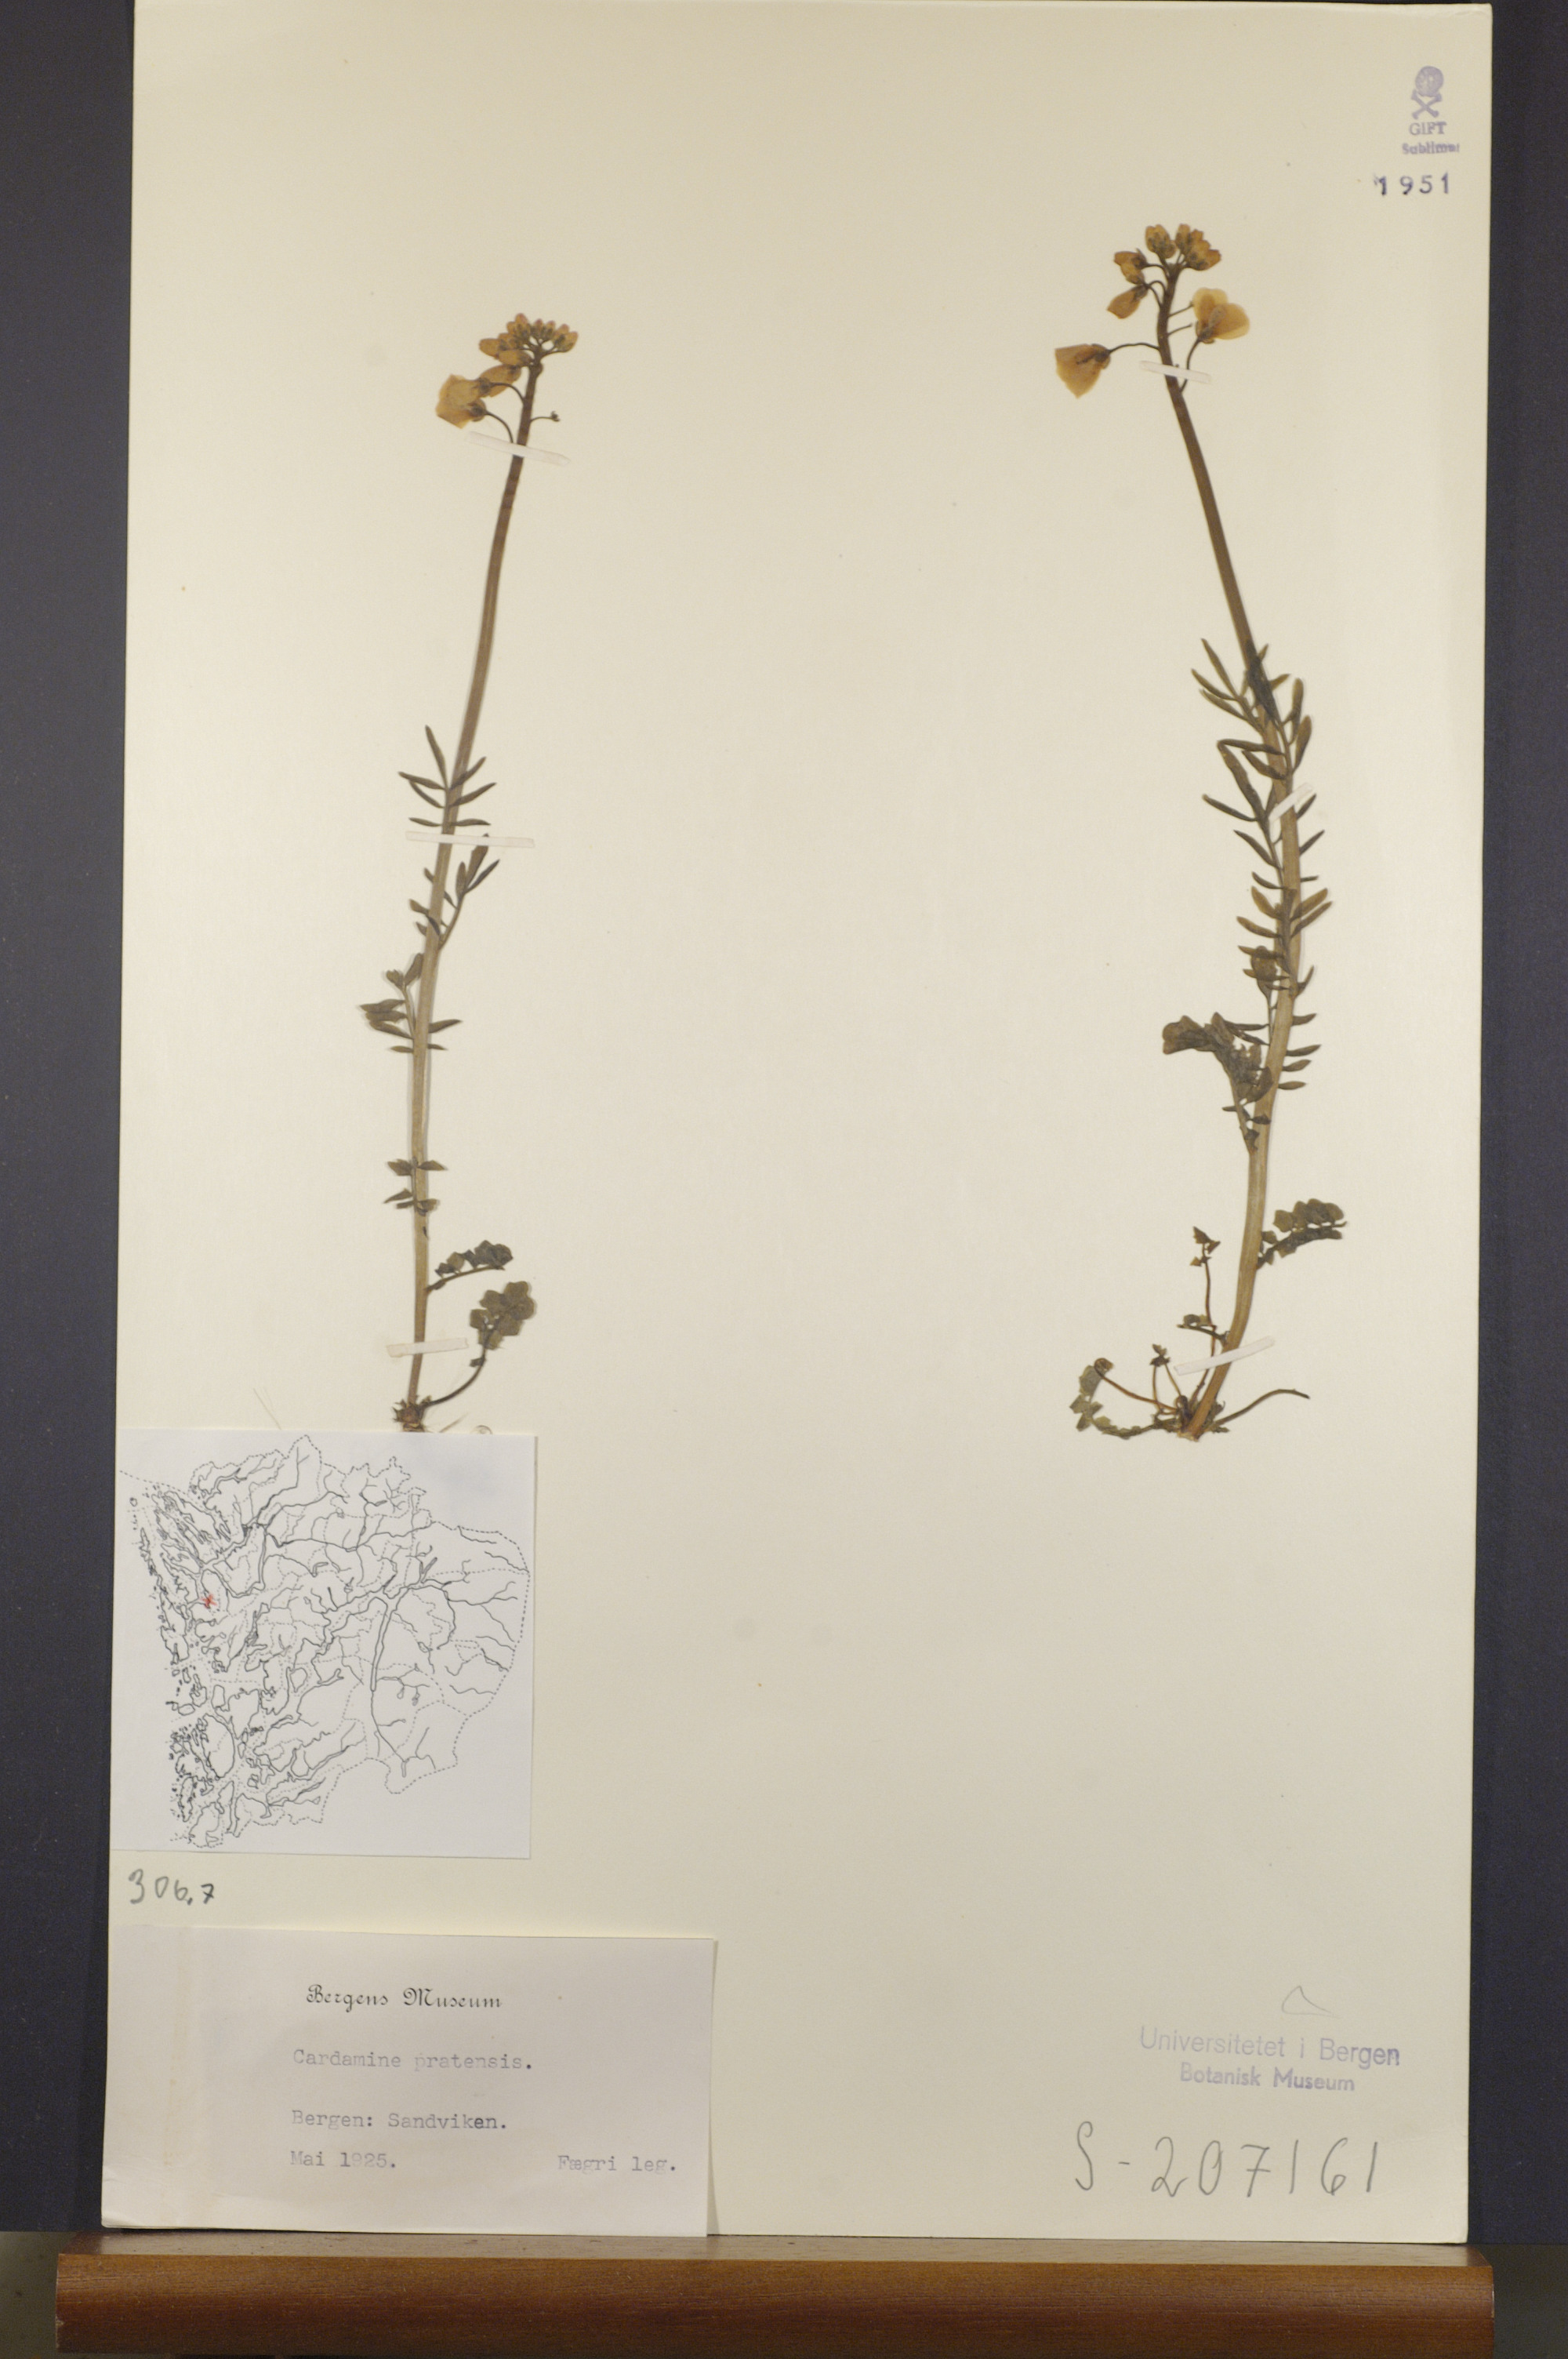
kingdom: Plantae
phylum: Tracheophyta
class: Magnoliopsida
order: Brassicales
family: Brassicaceae
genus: Cardamine
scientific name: Cardamine pratensis
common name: Cuckoo flower
